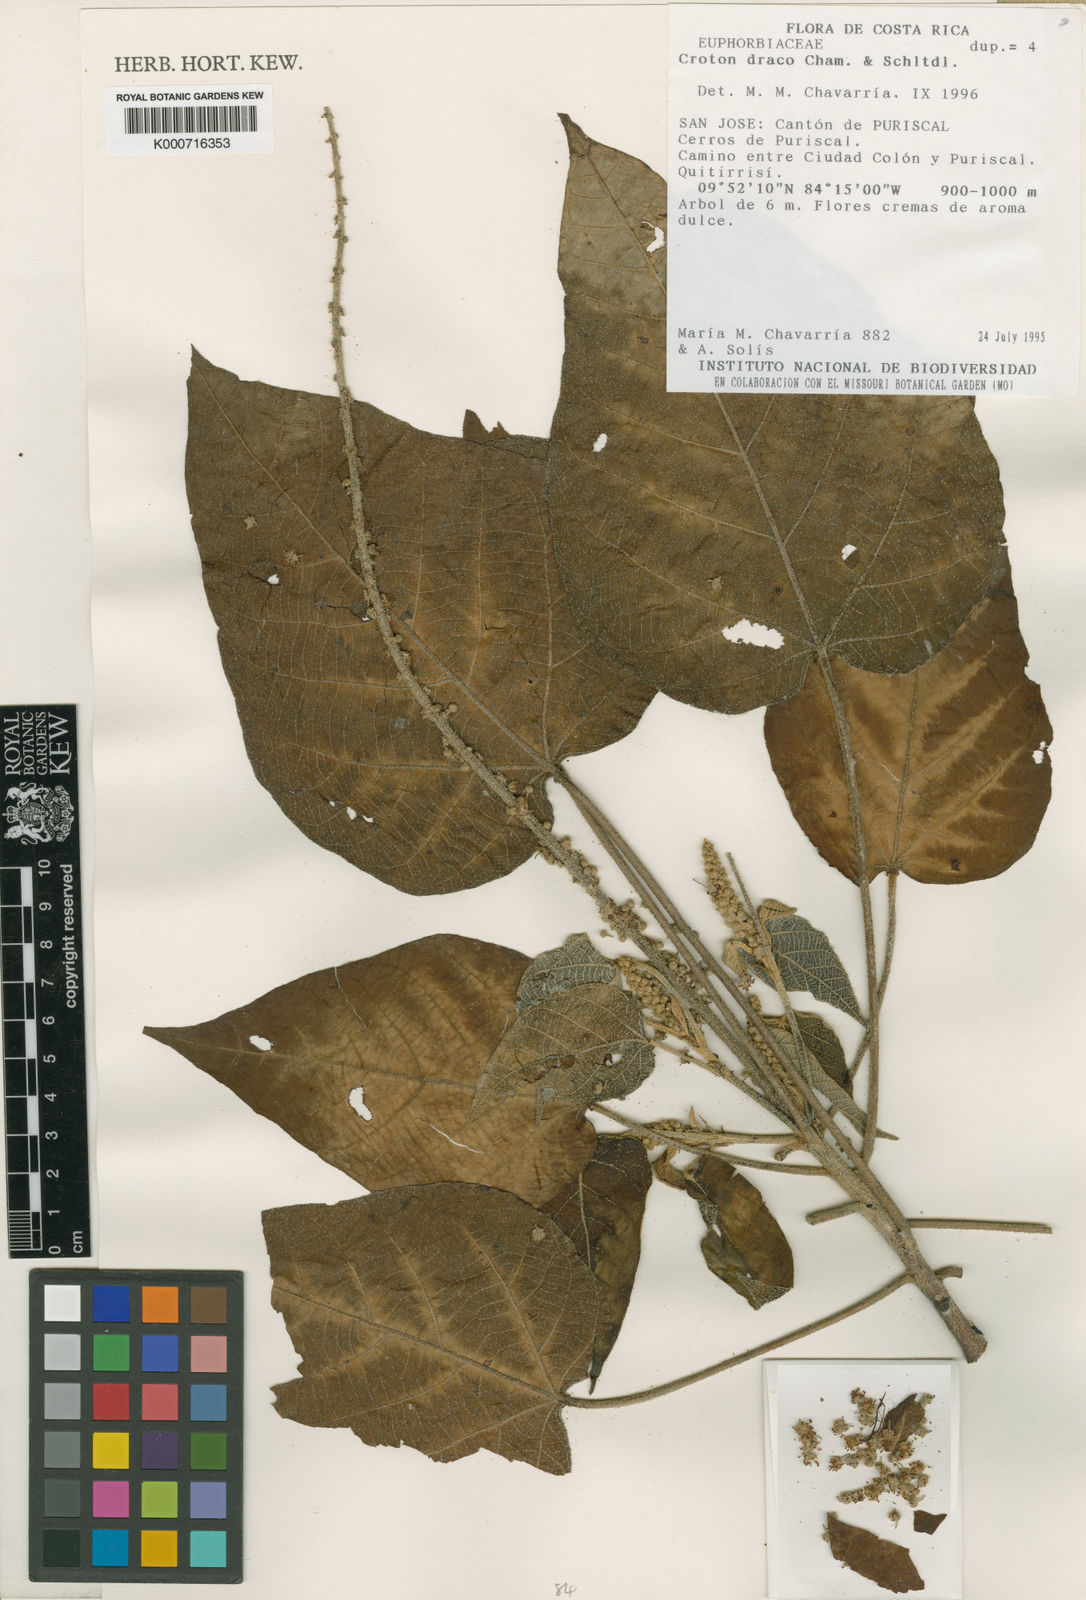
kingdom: Plantae
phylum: Tracheophyta
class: Magnoliopsida
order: Malpighiales
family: Euphorbiaceae
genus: Croton
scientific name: Croton draco
